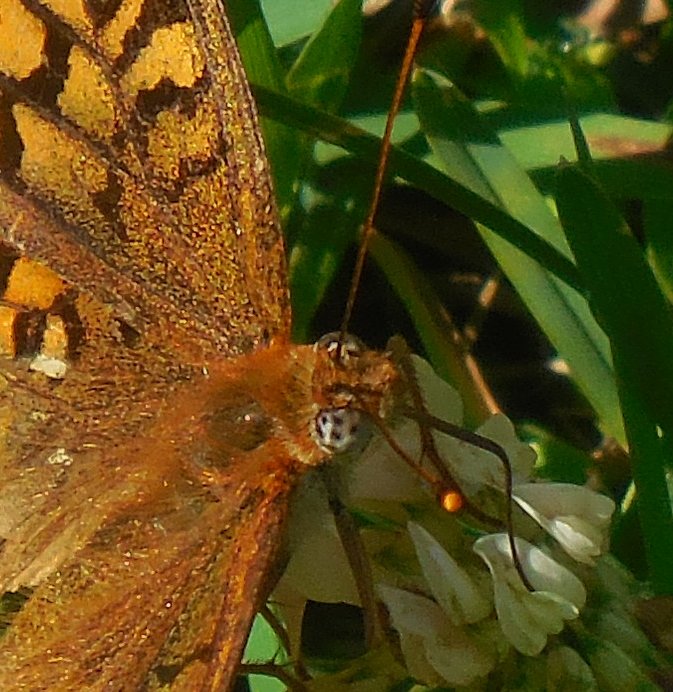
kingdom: Animalia
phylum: Arthropoda
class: Insecta
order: Lepidoptera
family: Nymphalidae
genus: Speyeria
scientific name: Speyeria atlantis
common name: Atlantis Fritillary
